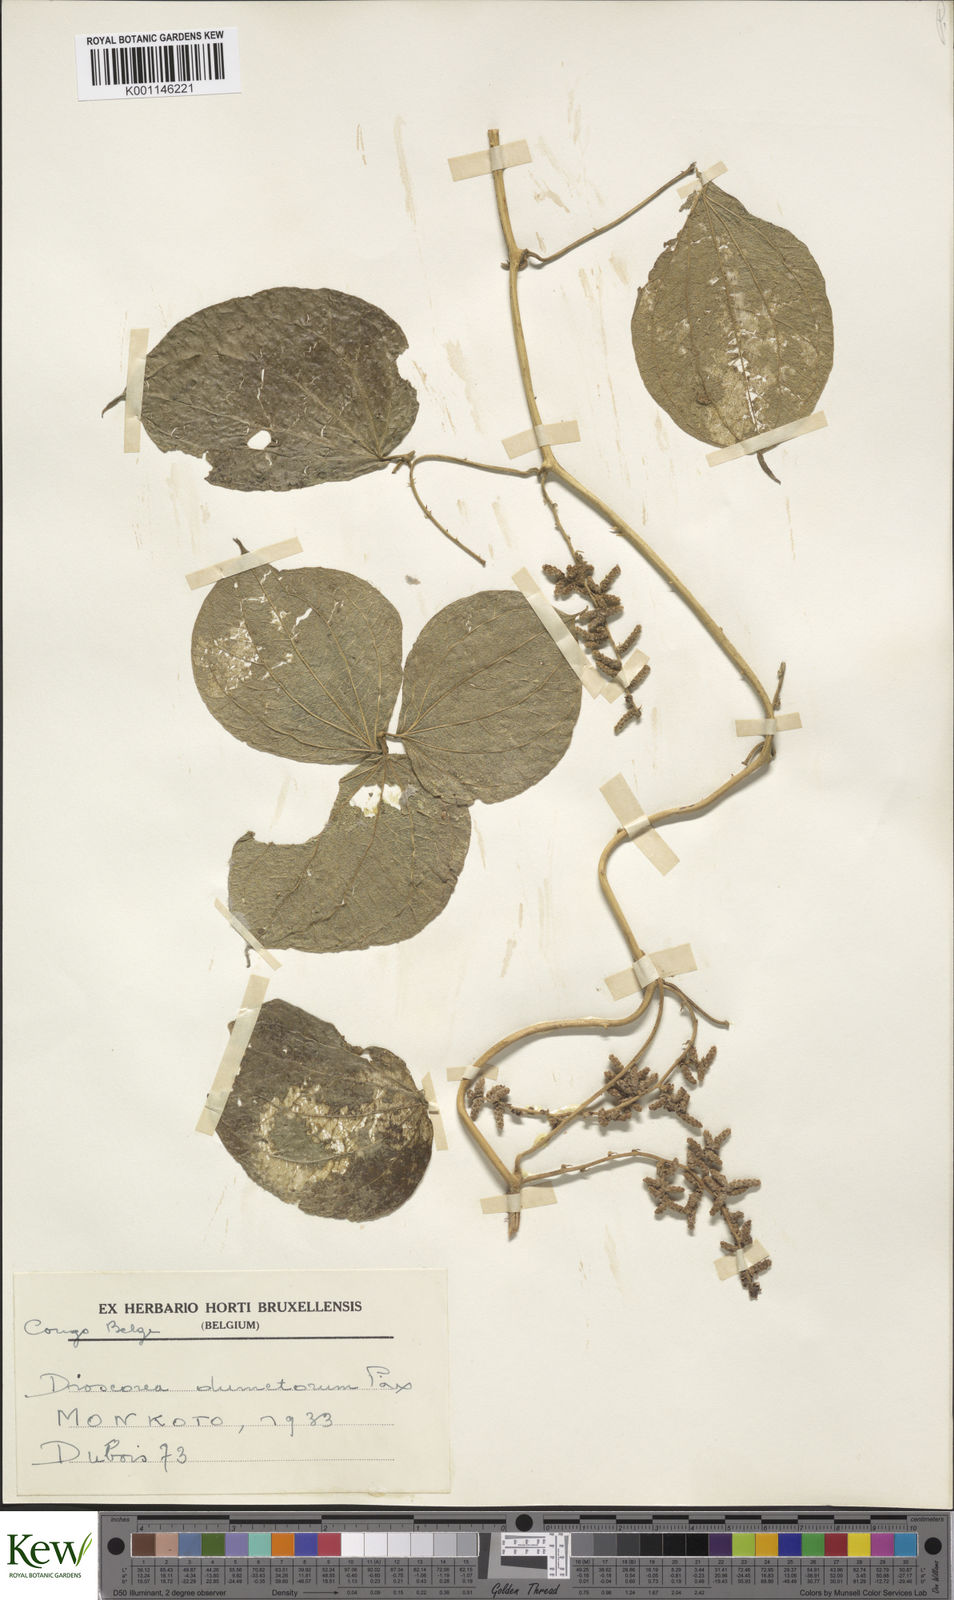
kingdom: Plantae
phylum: Tracheophyta
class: Liliopsida
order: Dioscoreales
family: Dioscoreaceae
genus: Dioscorea
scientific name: Dioscorea dumetorum
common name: African bitter yam
